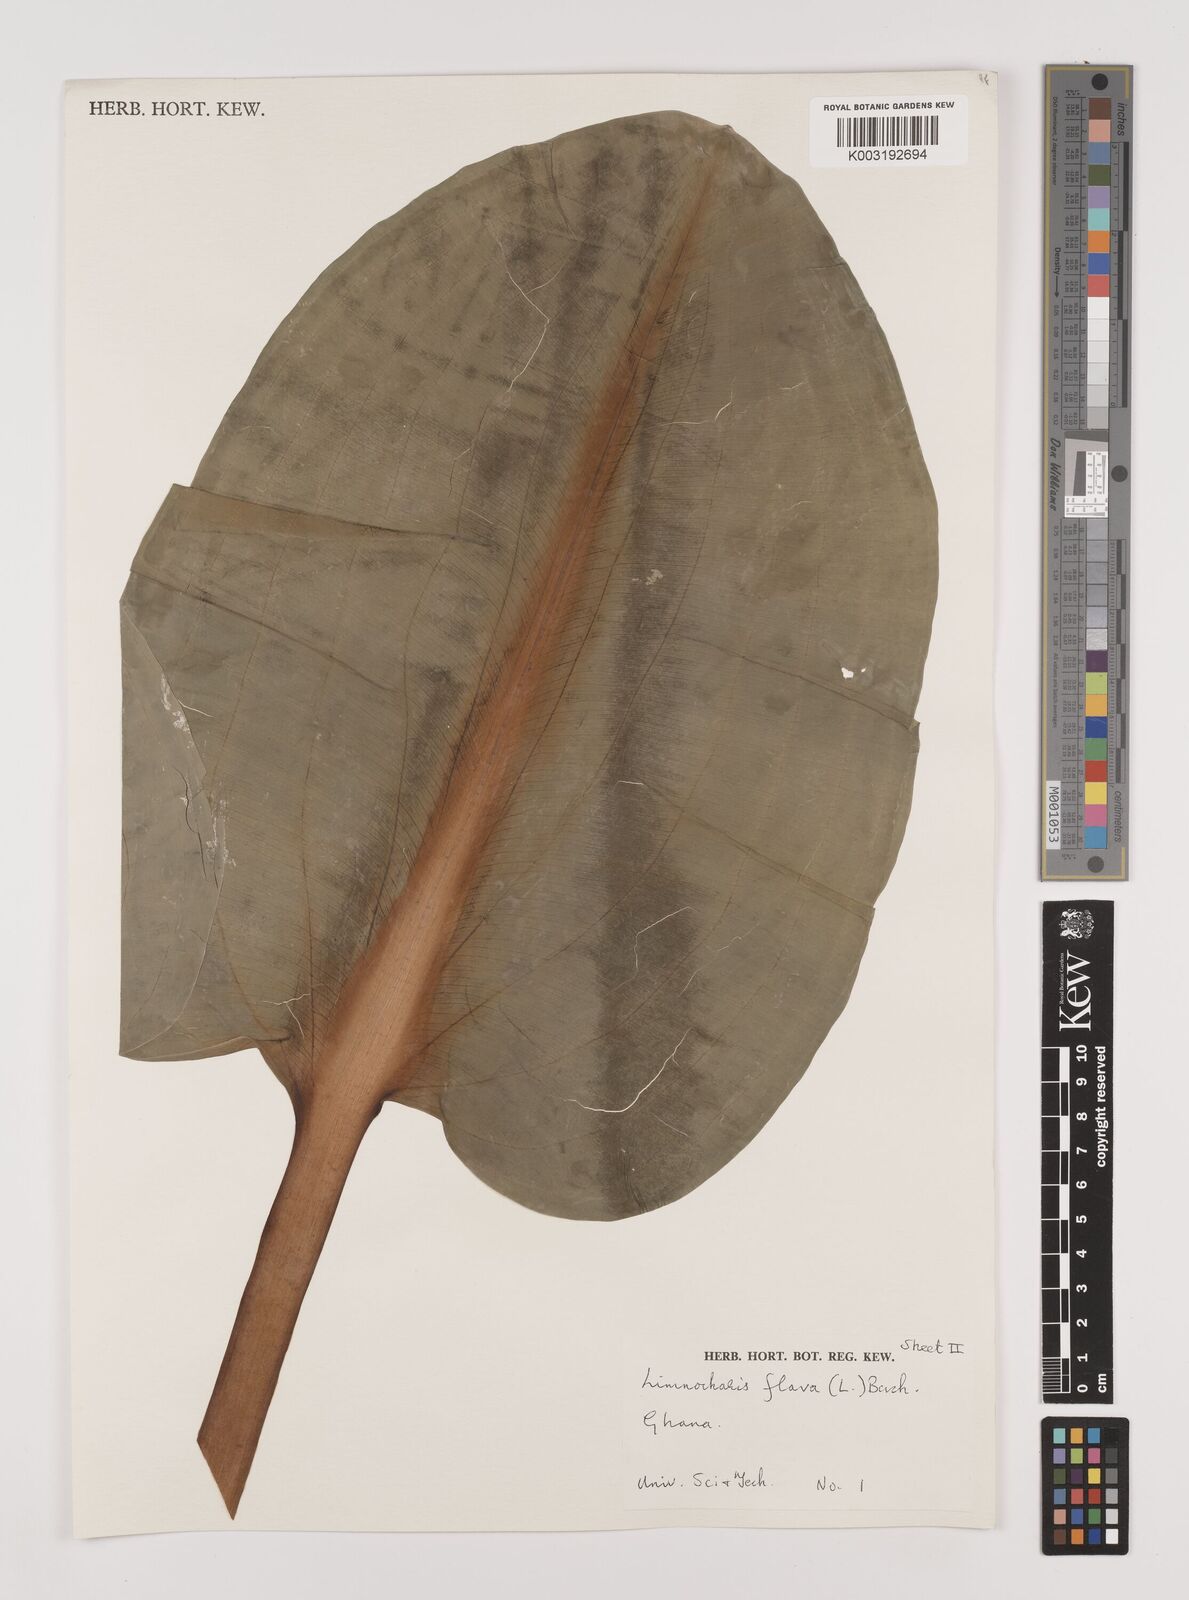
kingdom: Plantae
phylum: Tracheophyta
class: Liliopsida
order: Alismatales
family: Alismataceae
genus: Limnocharis
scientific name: Limnocharis flava
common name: Sawah-flower-rush
